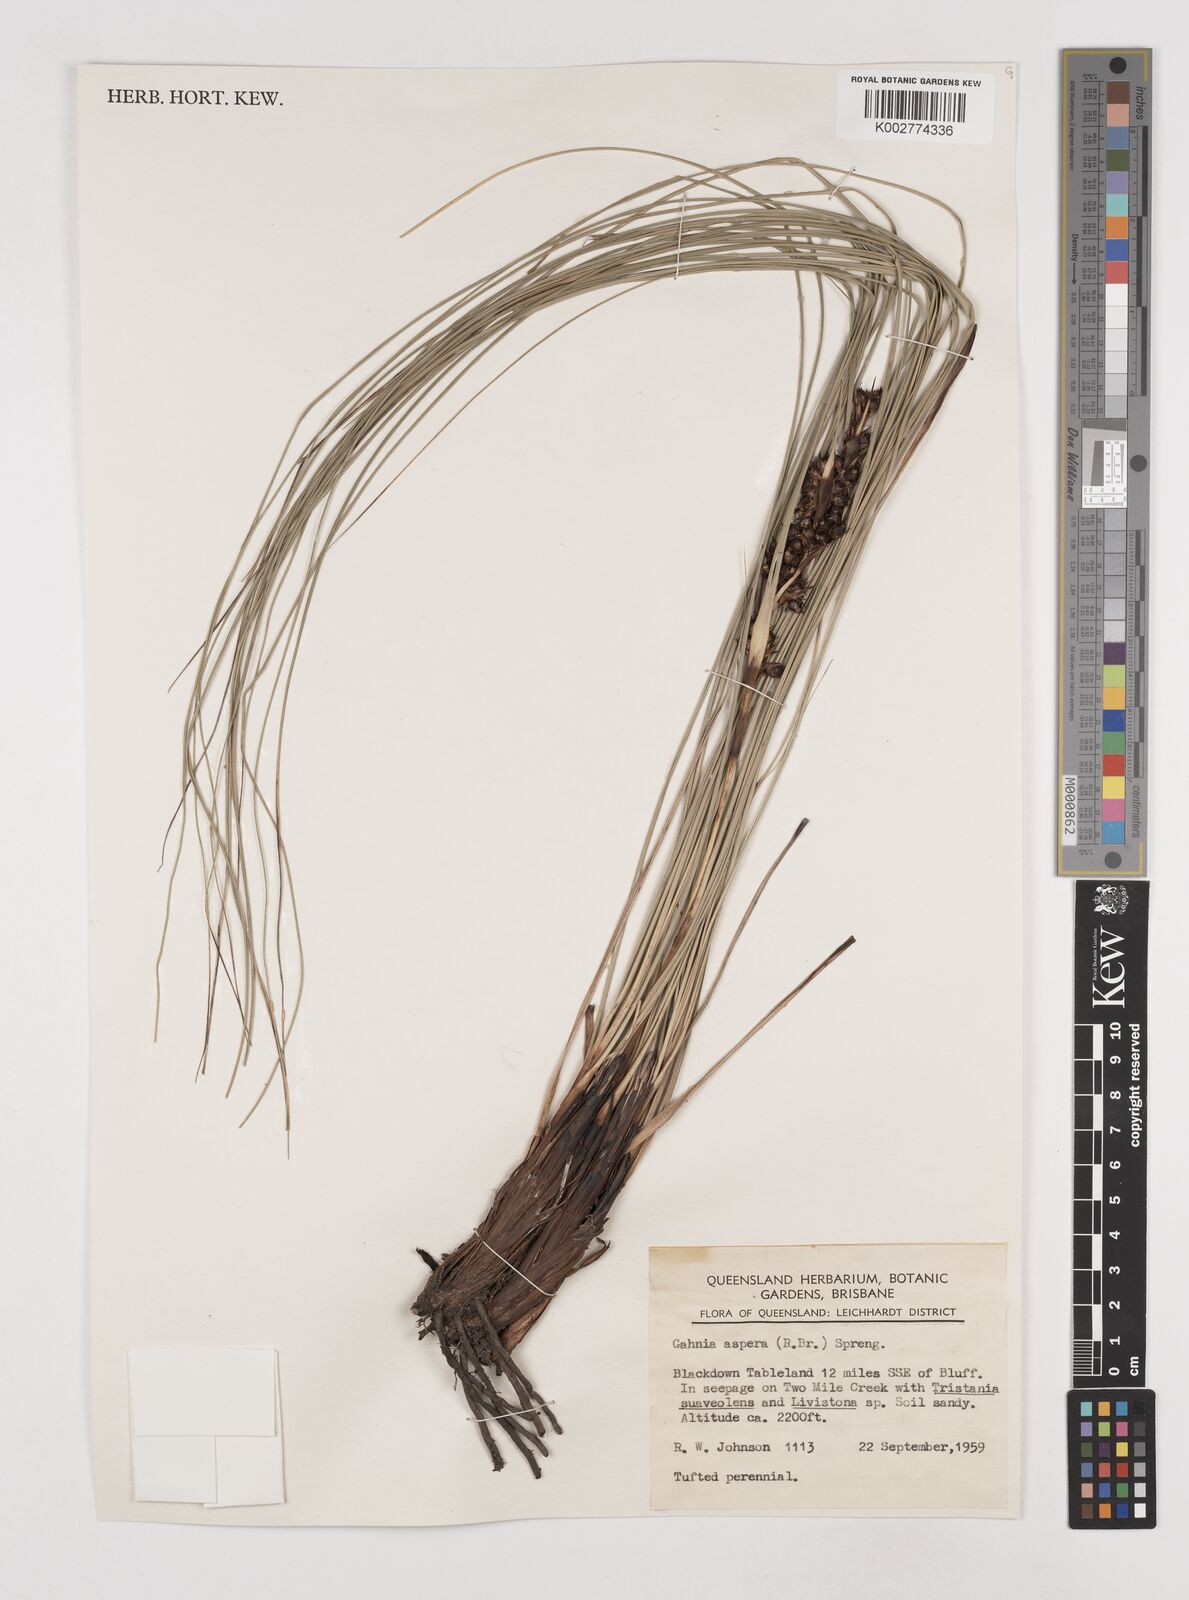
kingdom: Plantae
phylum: Tracheophyta
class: Liliopsida
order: Poales
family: Cyperaceae
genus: Gahnia
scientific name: Gahnia aspera
